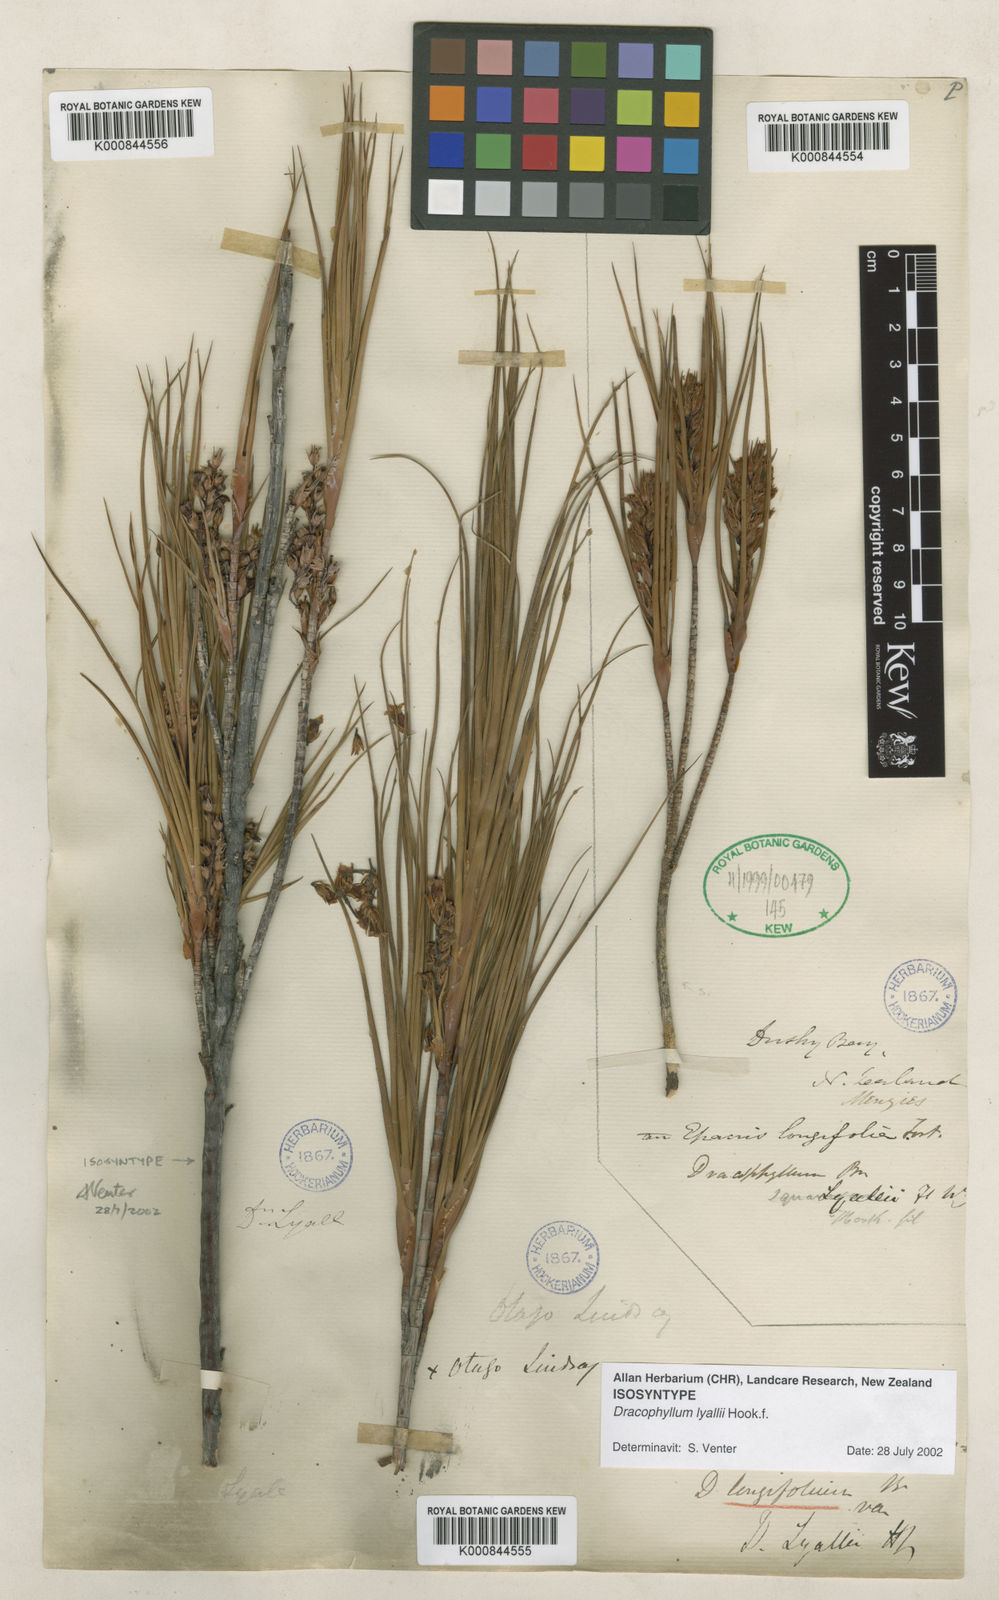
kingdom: Plantae
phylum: Tracheophyta
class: Magnoliopsida
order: Ericales
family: Ericaceae
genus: Dracophyllum
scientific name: Dracophyllum
